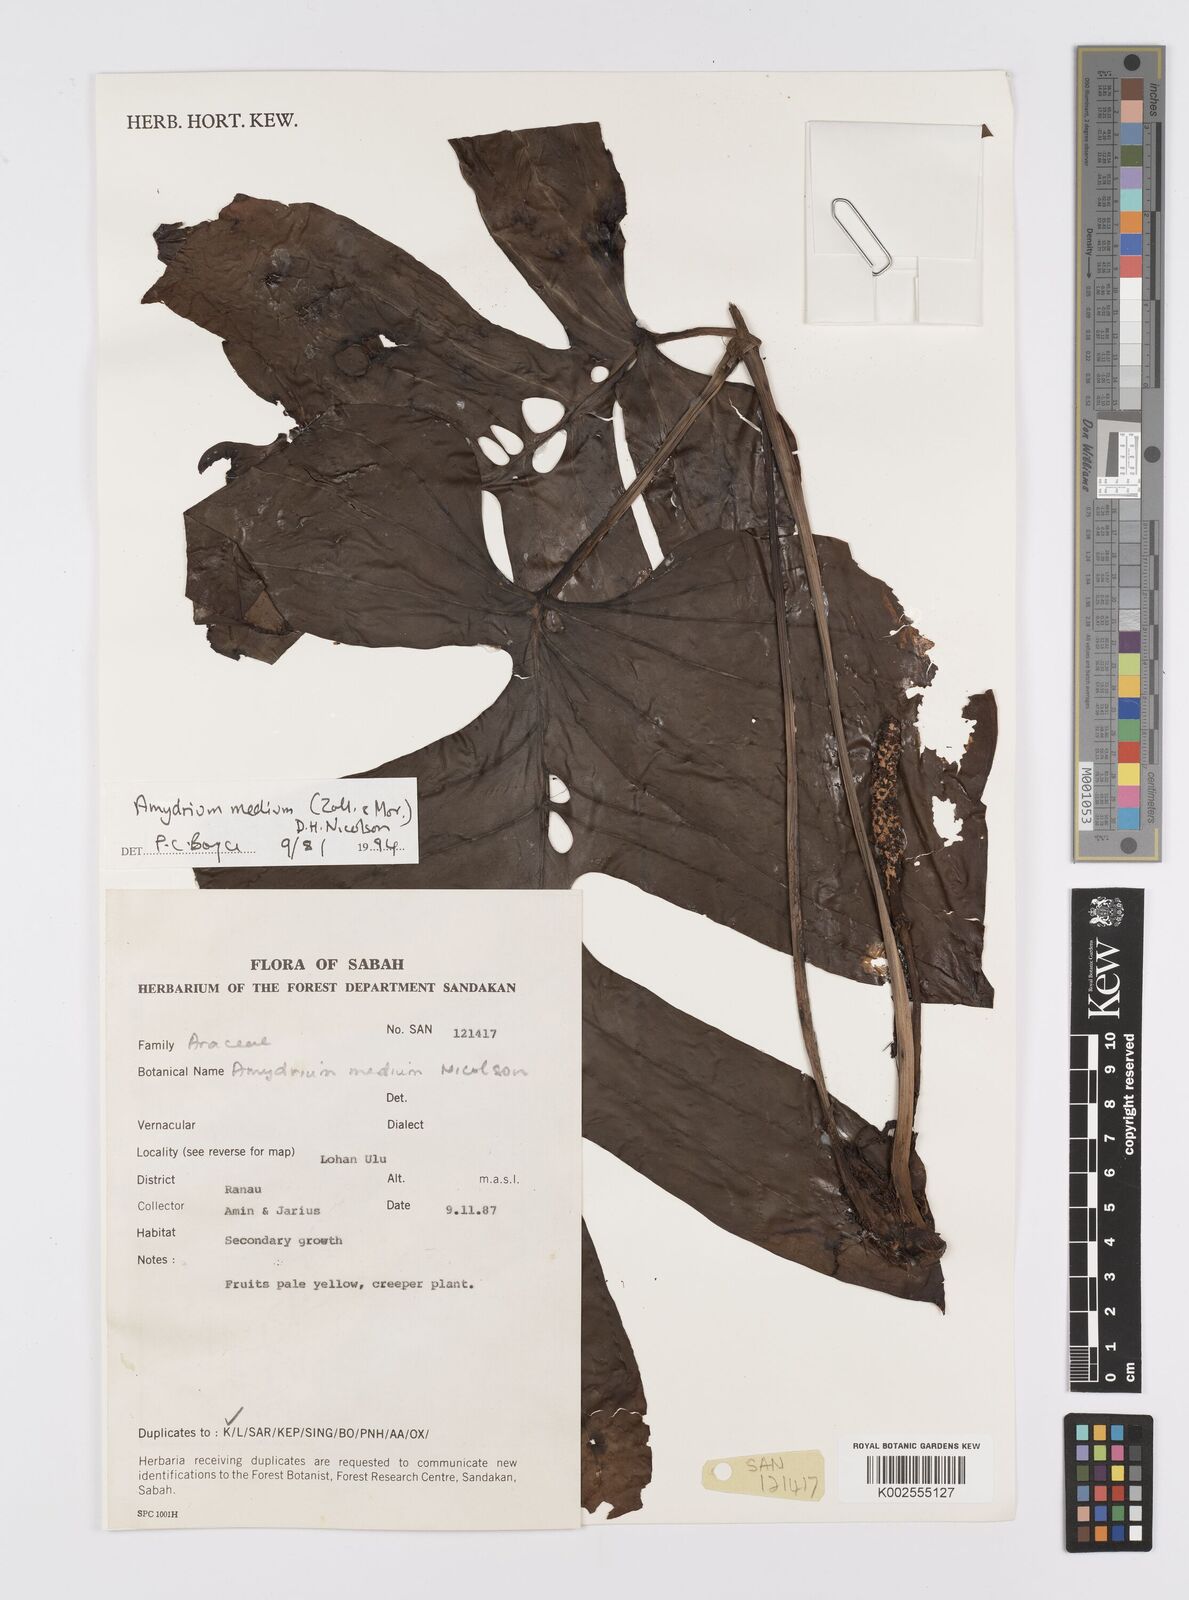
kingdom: Plantae
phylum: Tracheophyta
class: Liliopsida
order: Alismatales
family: Araceae
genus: Amydrium
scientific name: Amydrium medium
